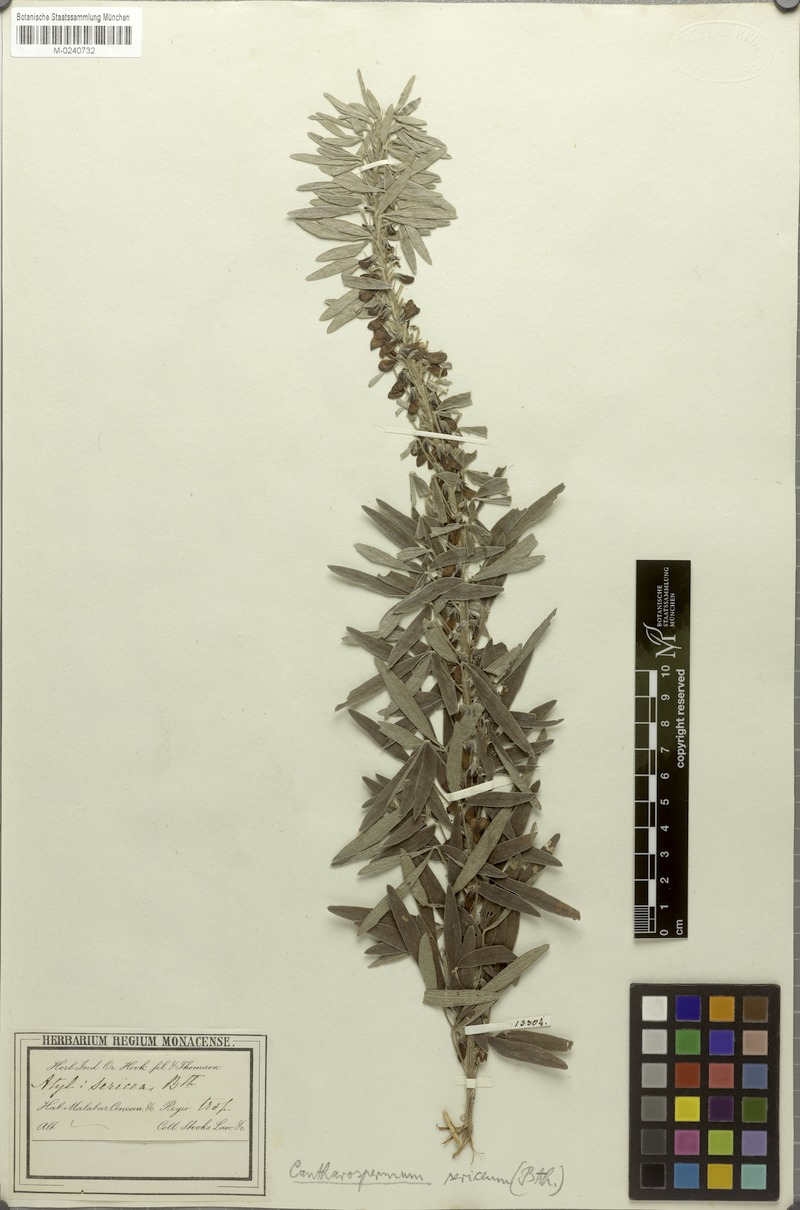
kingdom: Plantae
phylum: Tracheophyta
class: Magnoliopsida
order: Fabales
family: Fabaceae
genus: Cajanus
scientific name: Cajanus sericeus
